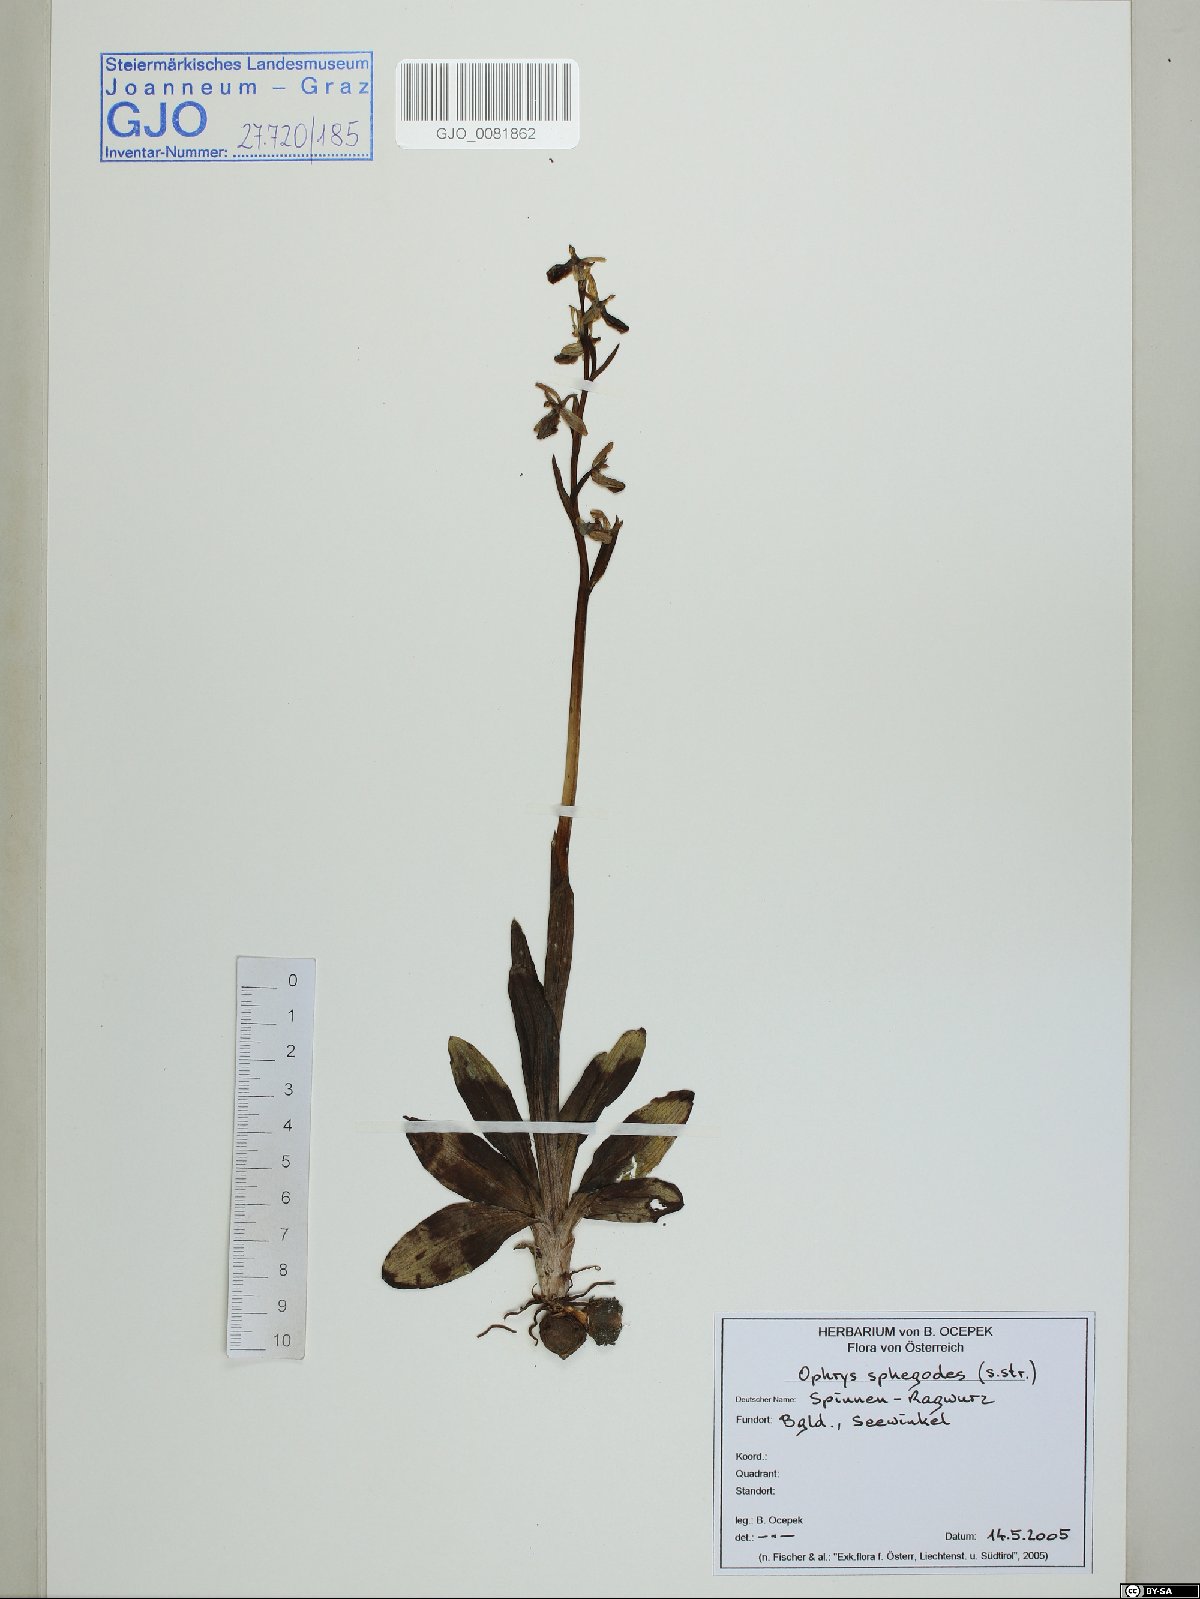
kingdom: Plantae
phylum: Tracheophyta
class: Liliopsida
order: Asparagales
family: Orchidaceae
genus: Ophrys
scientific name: Ophrys sphegodes
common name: Early spider-orchid
